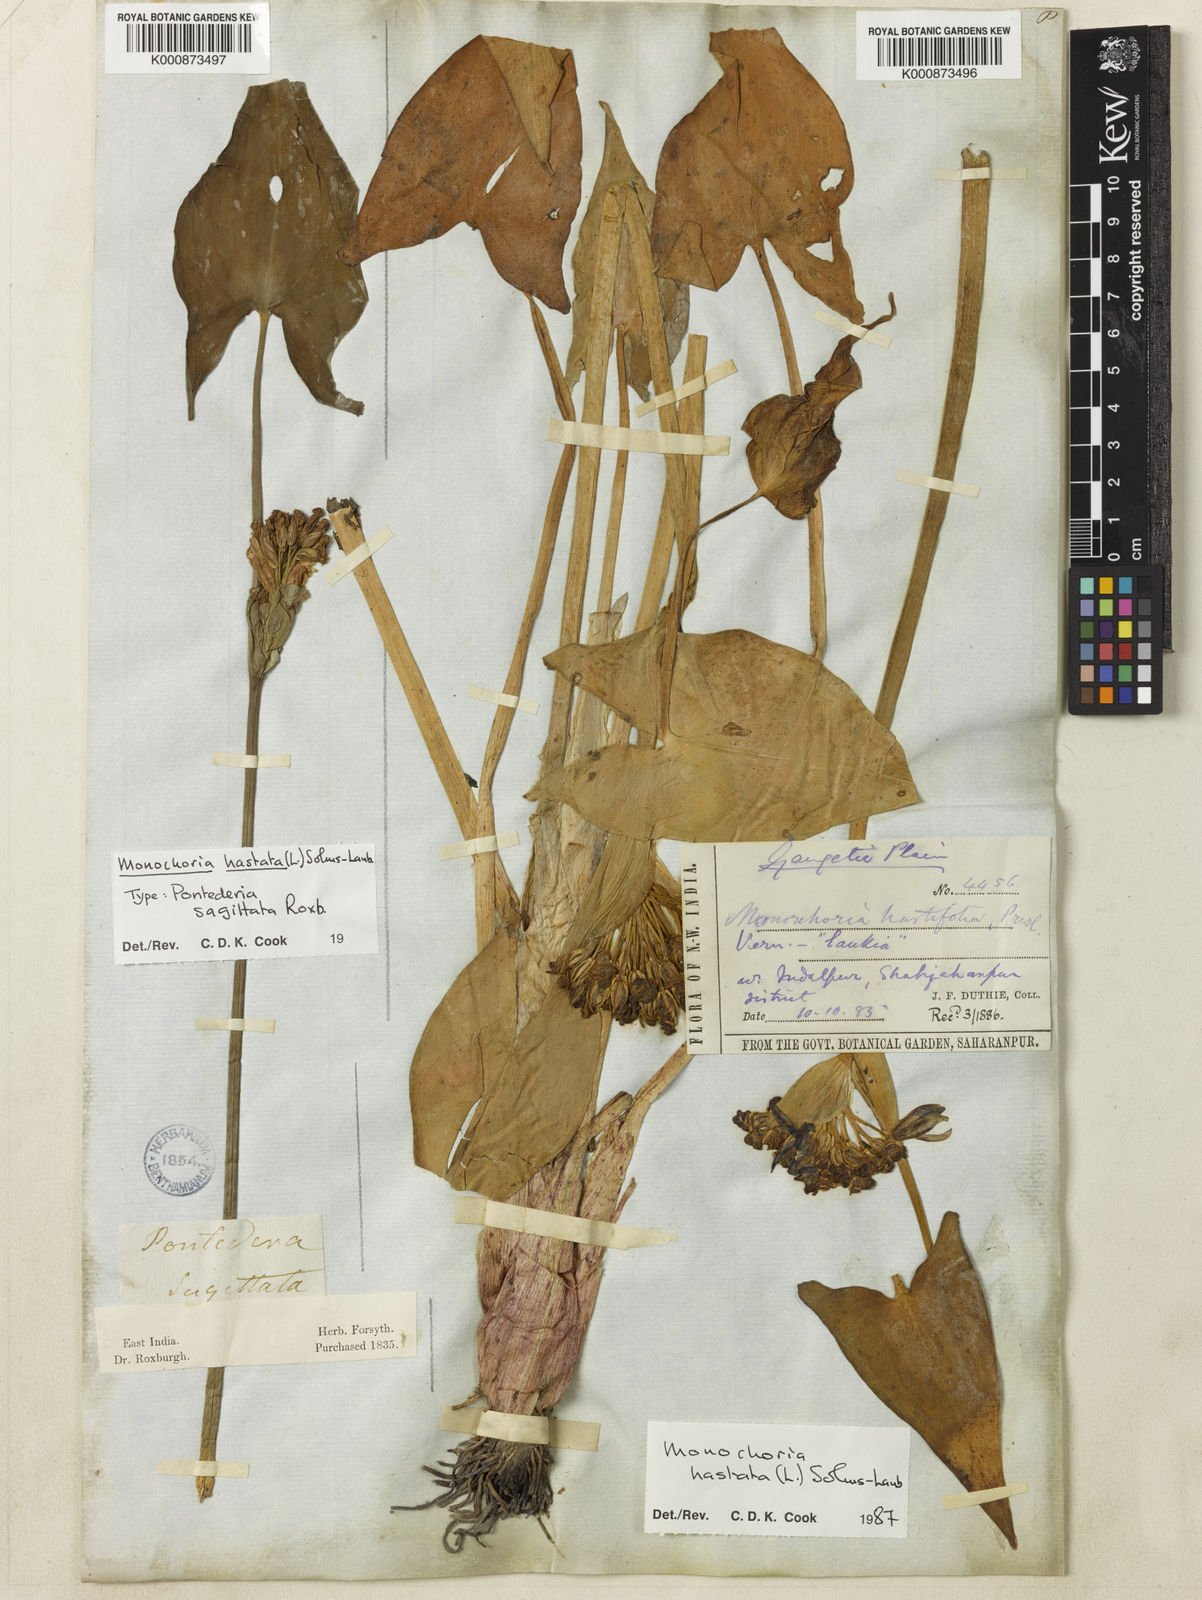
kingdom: Plantae
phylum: Tracheophyta
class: Liliopsida
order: Commelinales
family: Pontederiaceae
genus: Pontederia
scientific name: Pontederia hastata
